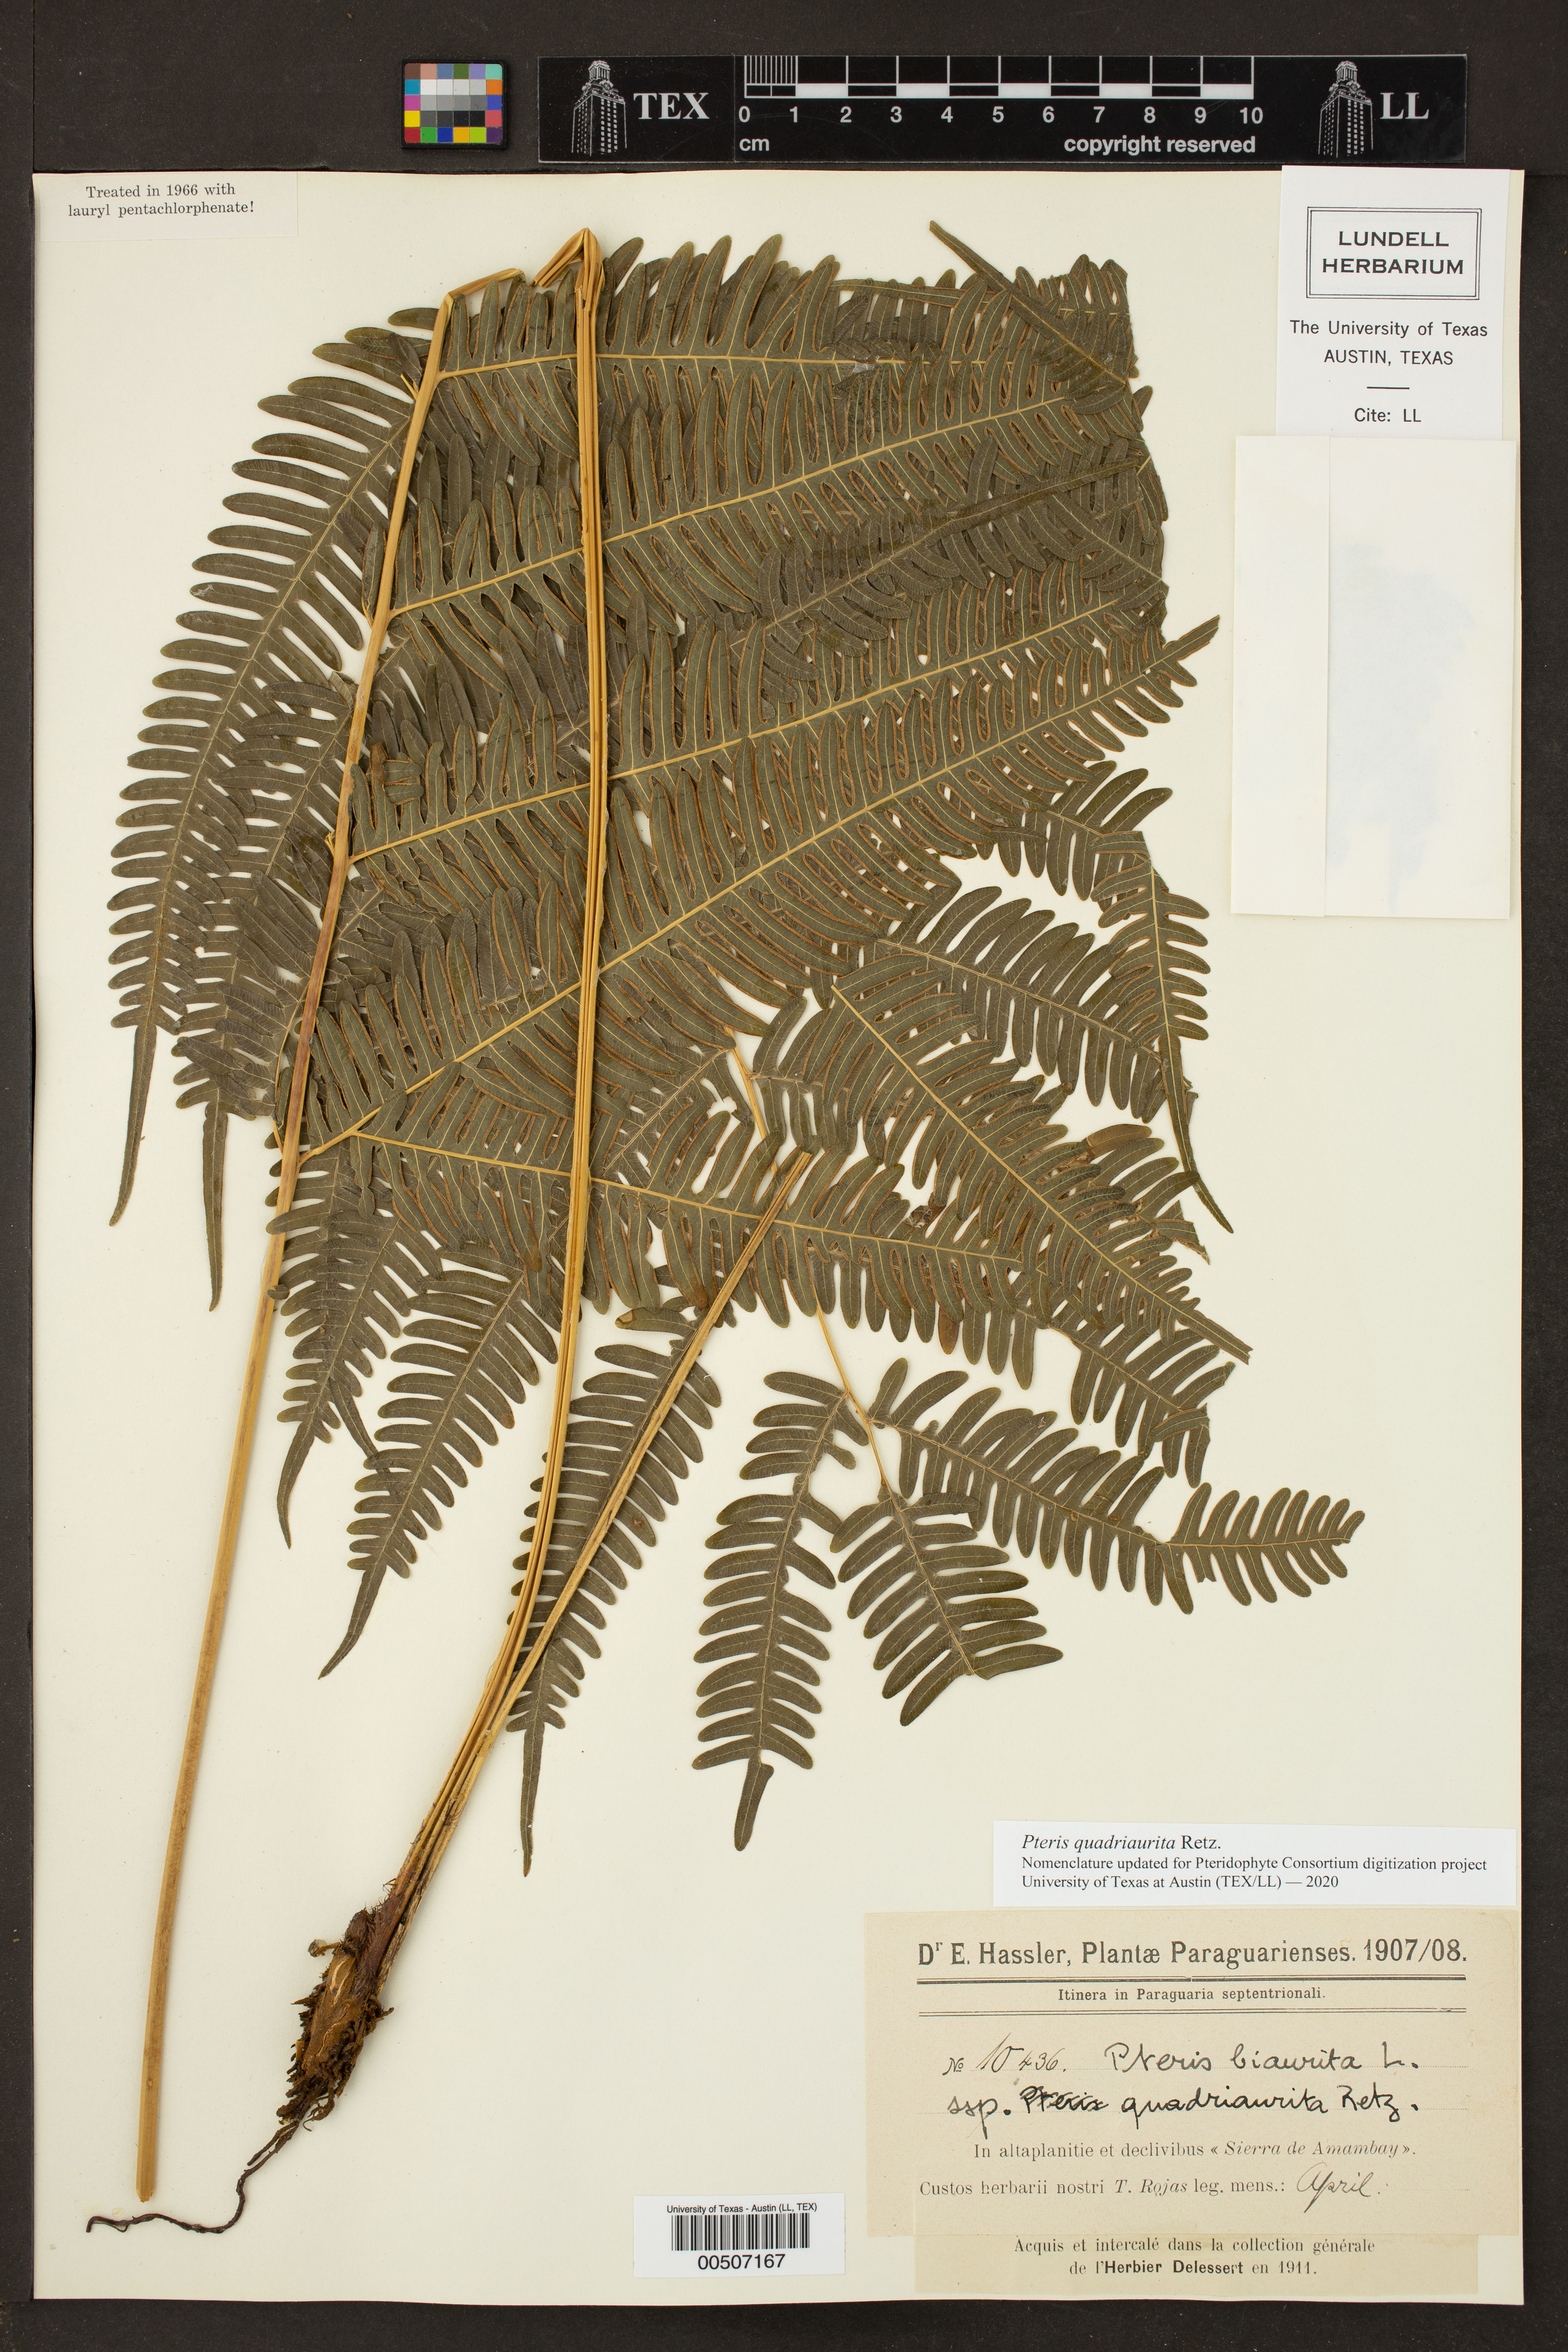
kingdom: Plantae
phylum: Tracheophyta
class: Polypodiopsida
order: Polypodiales
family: Pteridaceae
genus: Pteris
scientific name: Pteris biaurita
